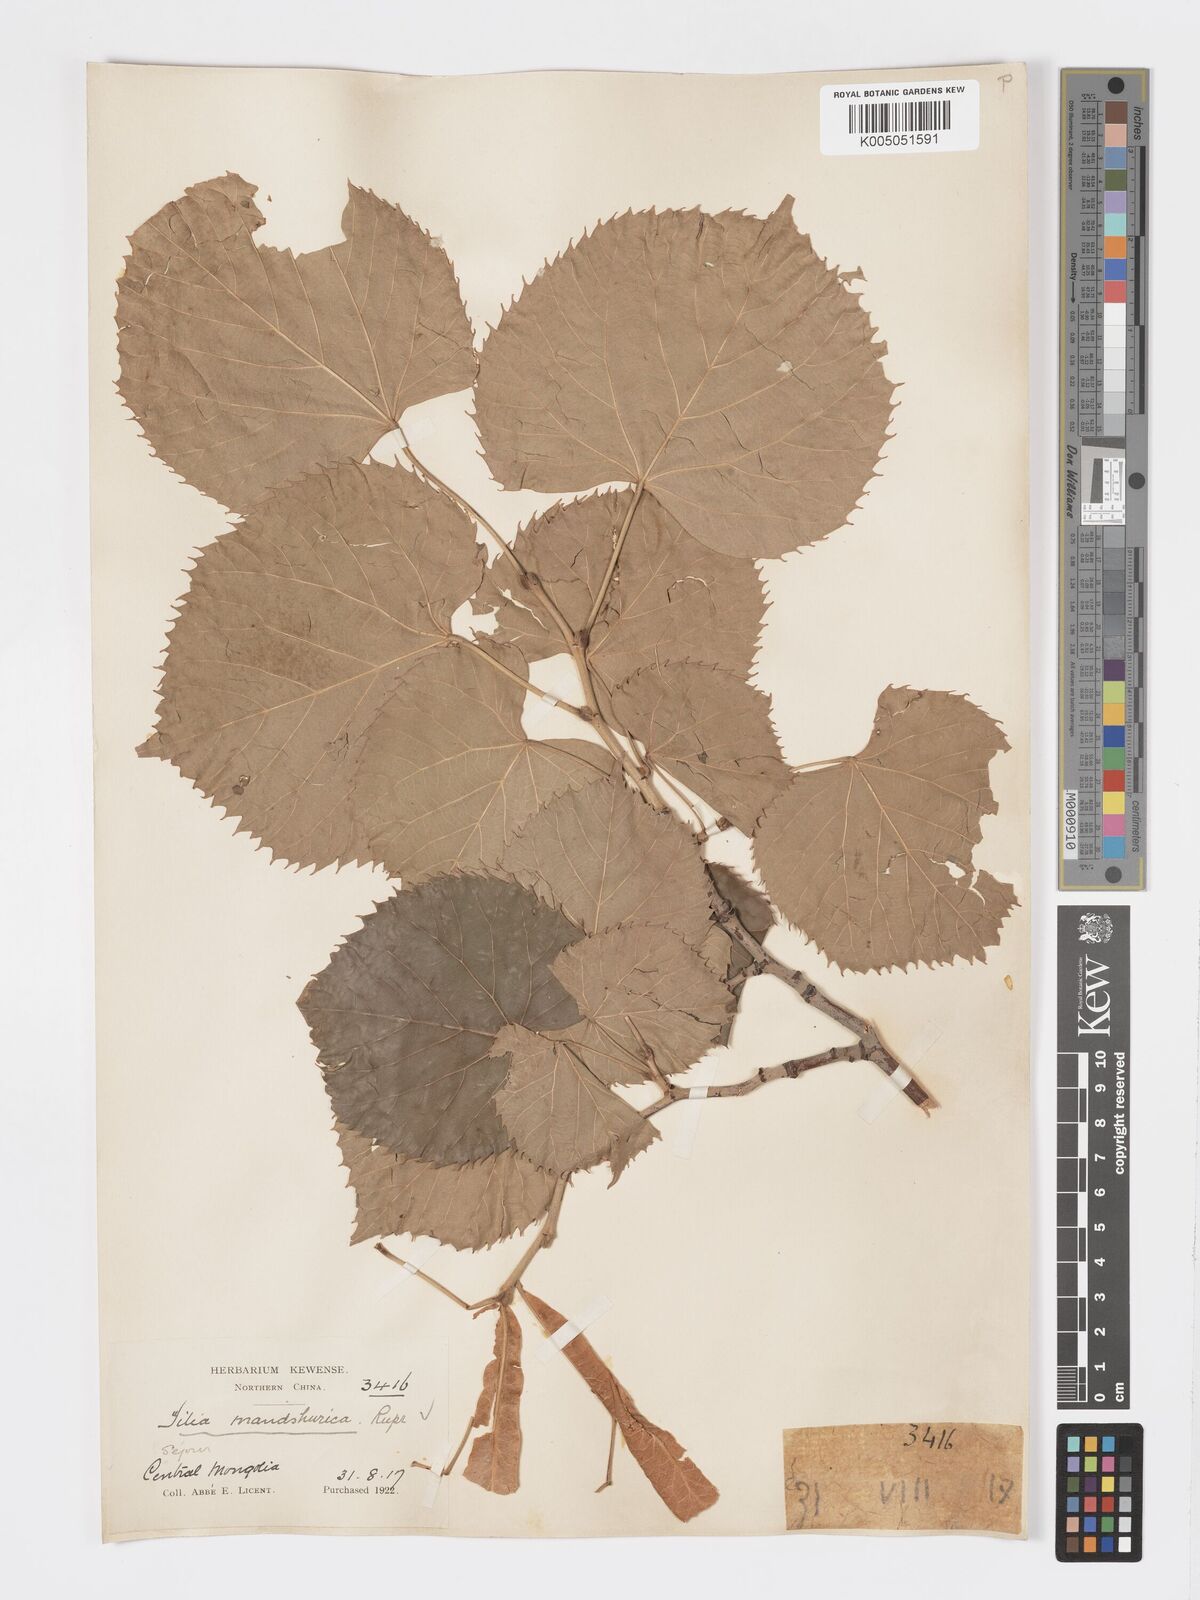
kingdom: Plantae
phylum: Tracheophyta
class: Magnoliopsida
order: Malvales
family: Malvaceae
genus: Tilia
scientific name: Tilia mandshurica
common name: Manchurian linden
